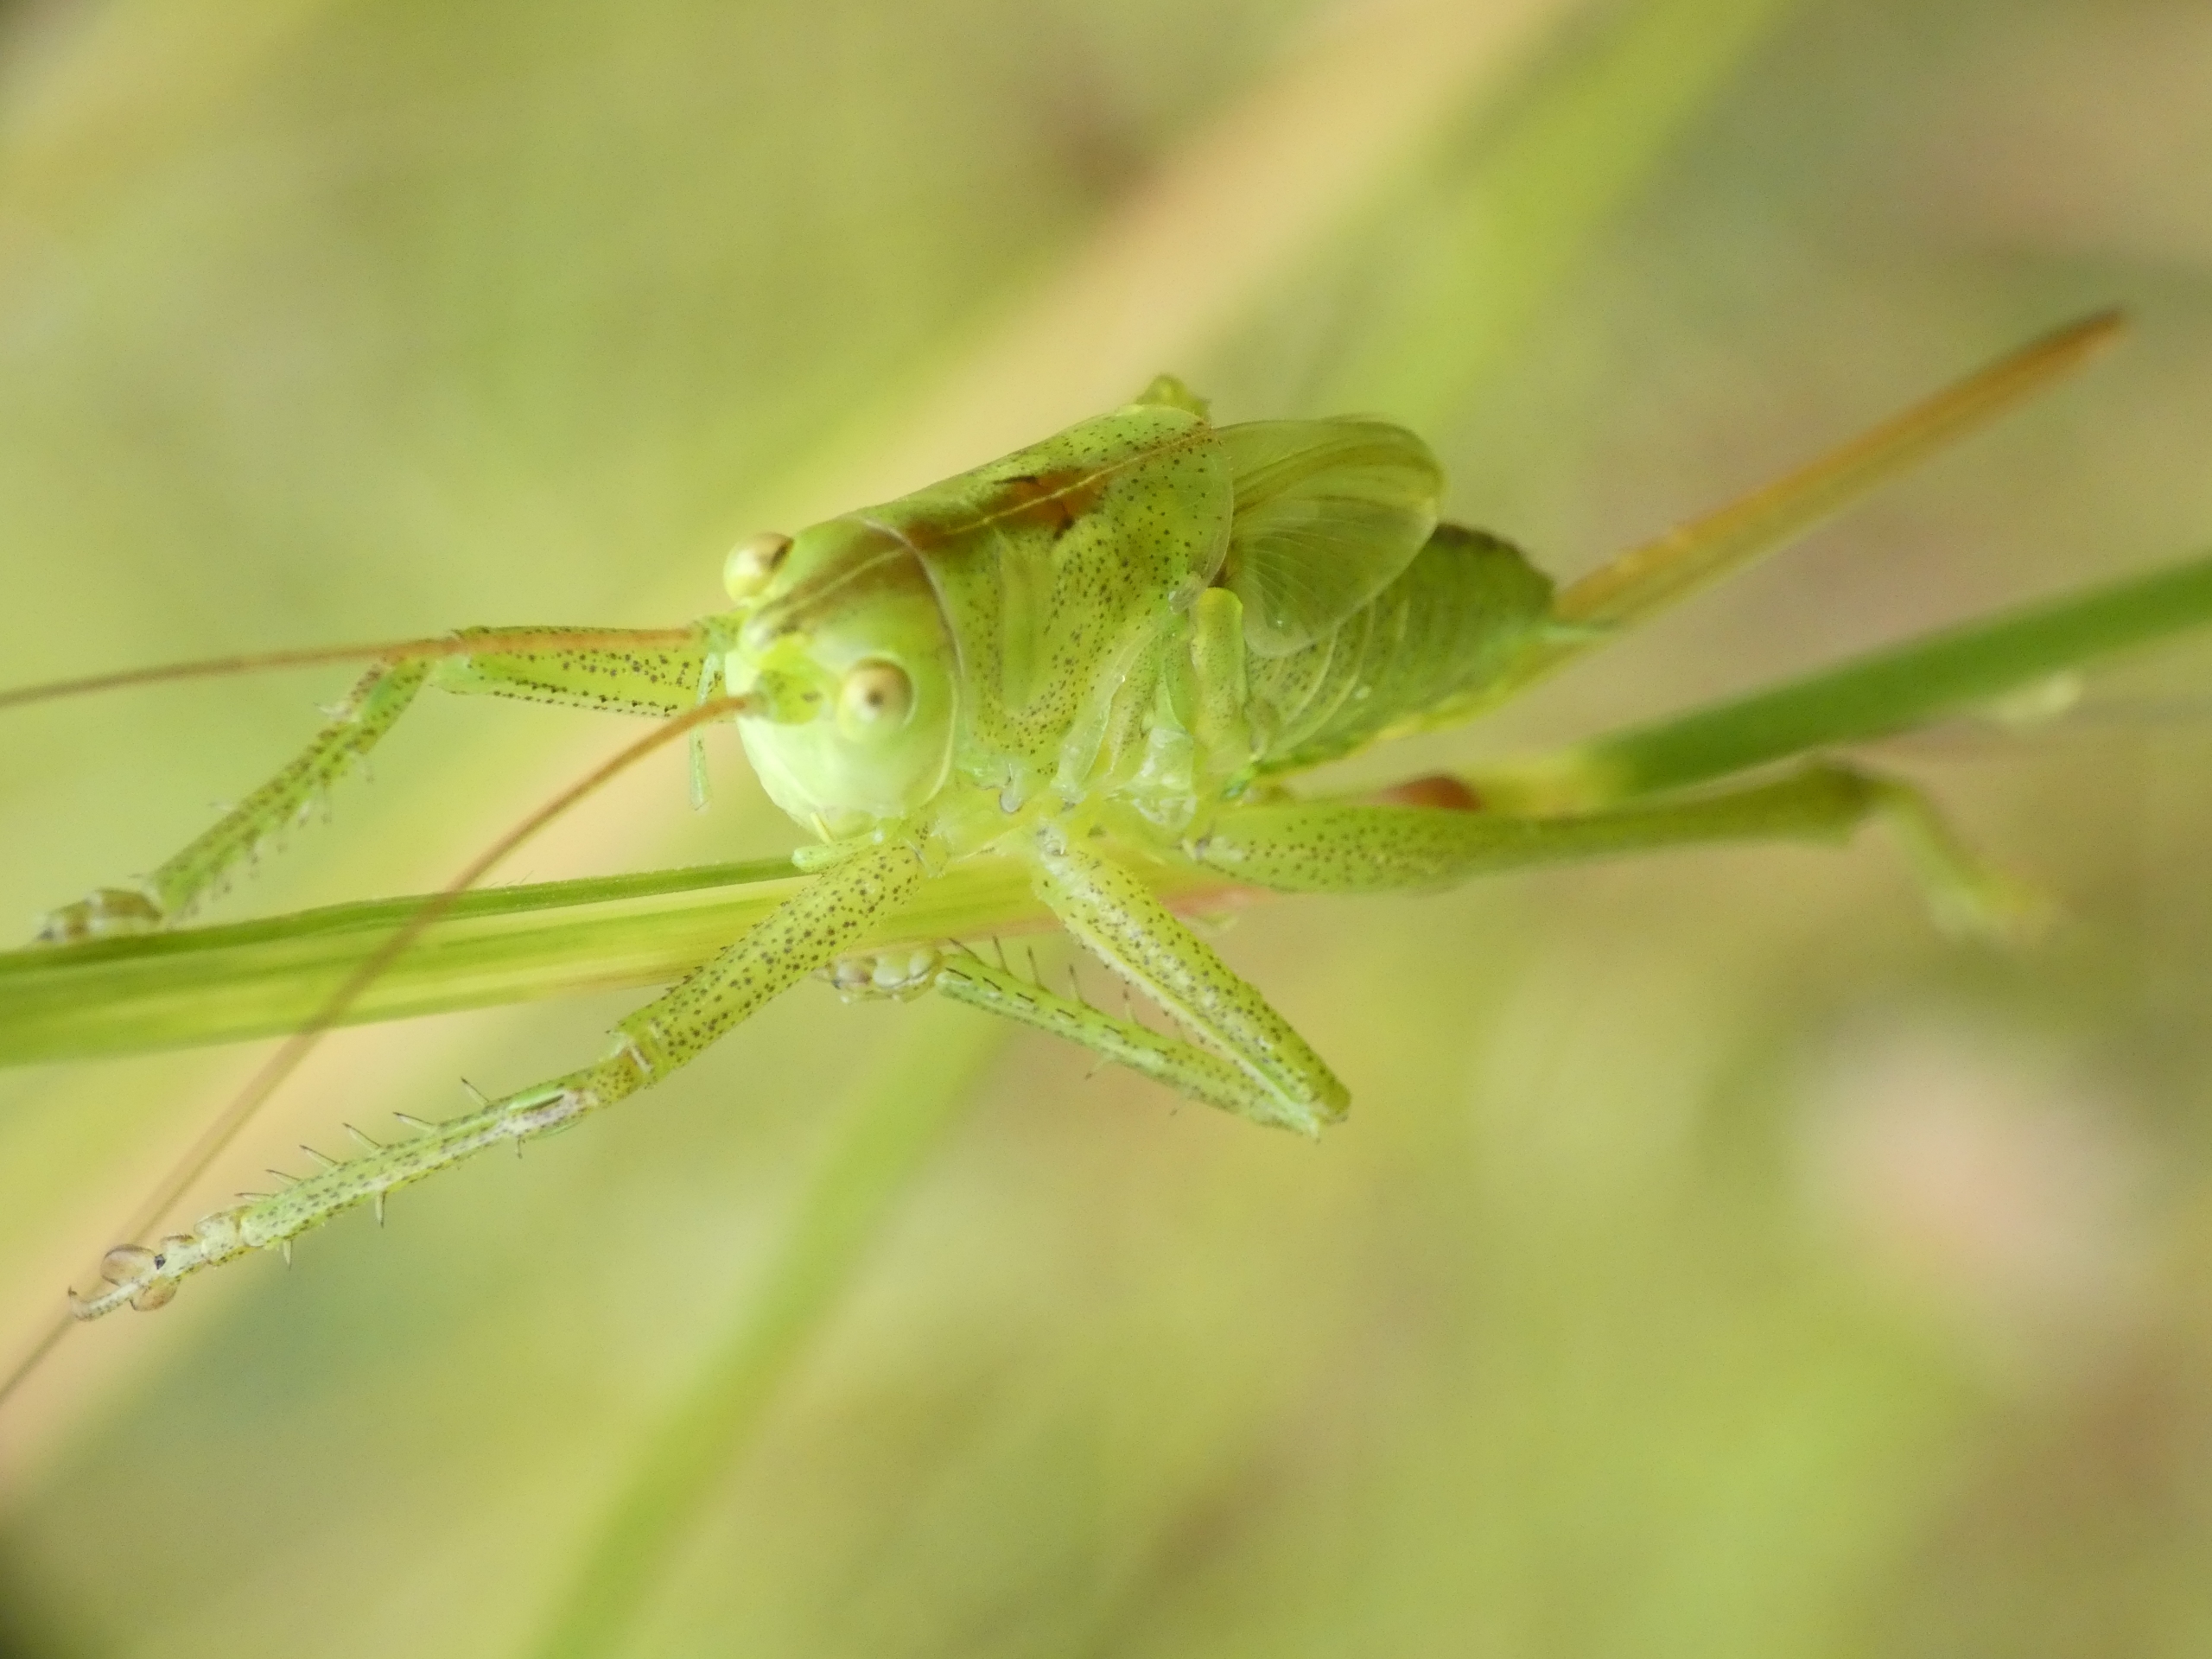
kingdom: Animalia
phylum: Arthropoda
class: Insecta
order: Orthoptera
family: Tettigoniidae
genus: Tettigonia
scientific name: Tettigonia viridissima
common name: Stor grøn løvgræshoppe
